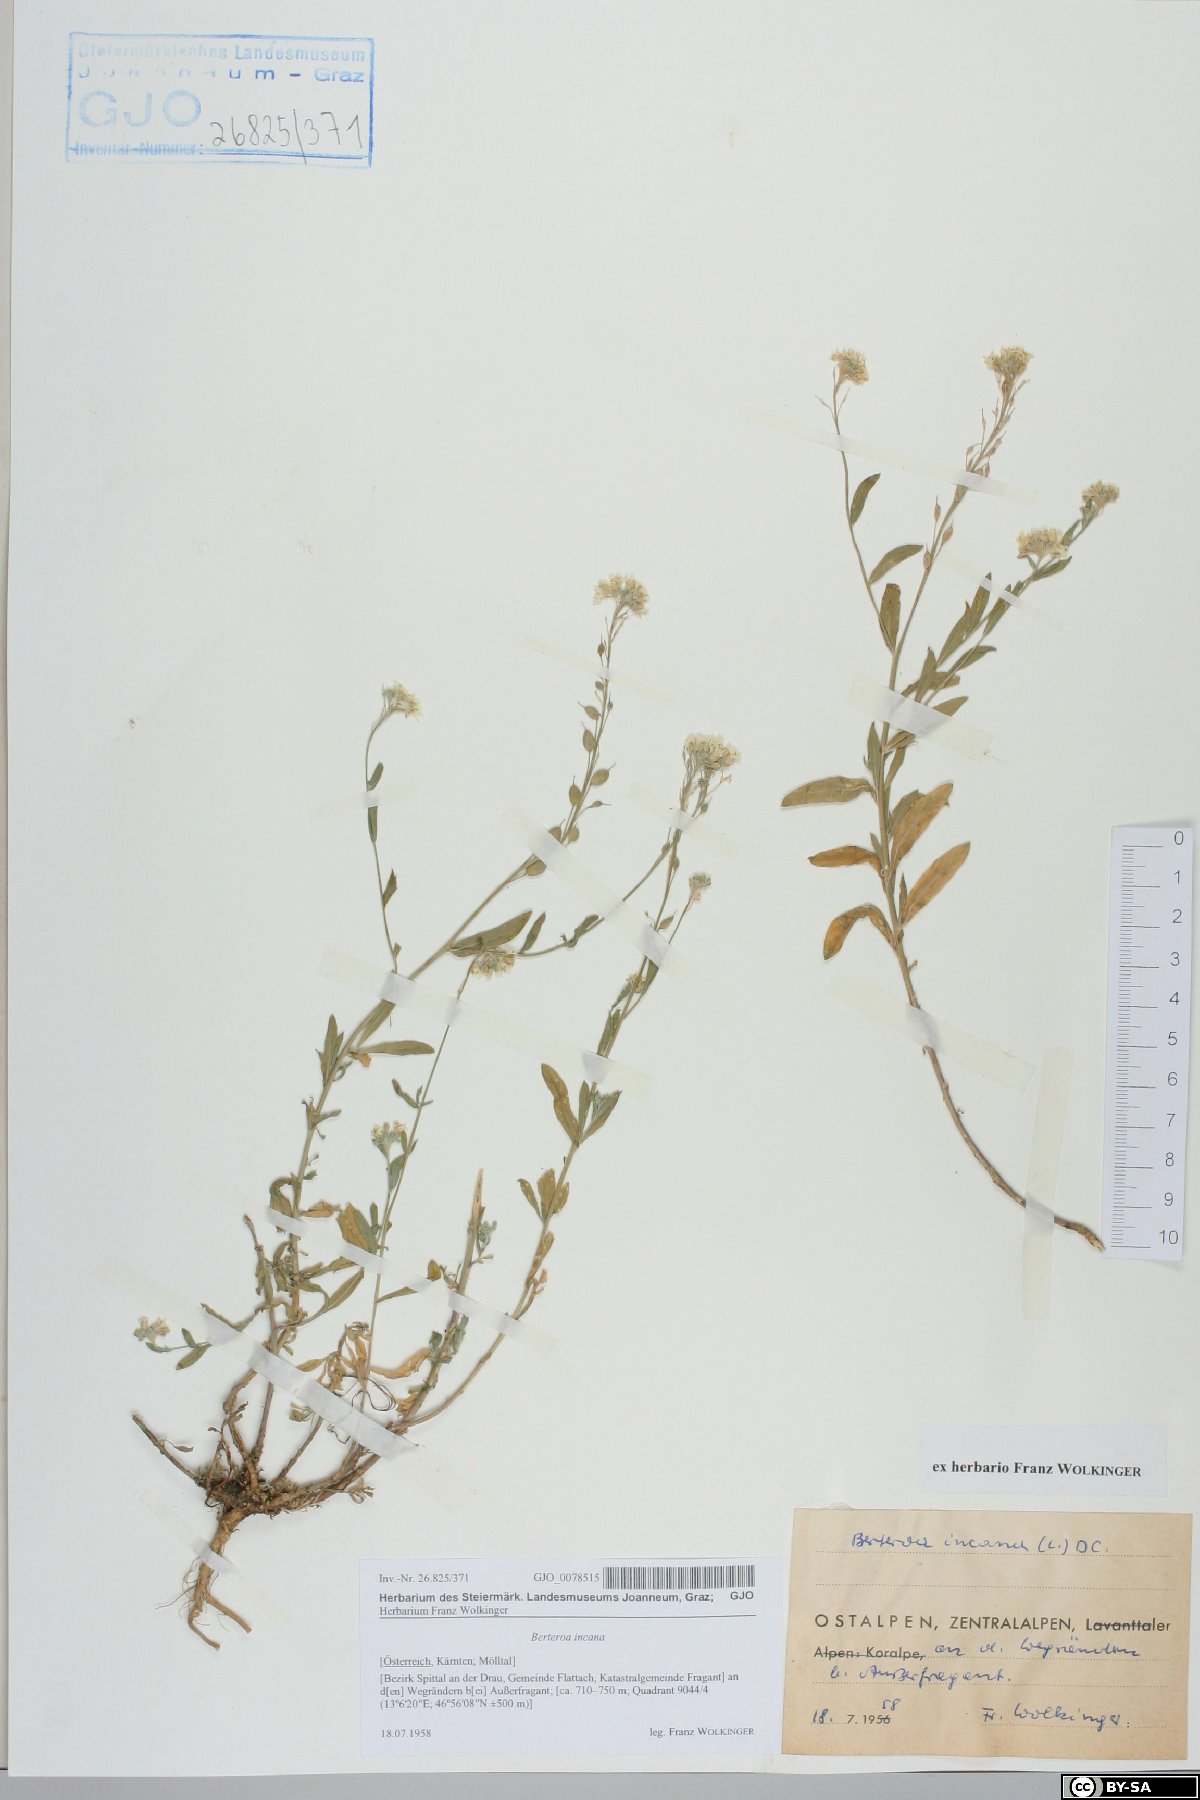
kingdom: Plantae
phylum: Tracheophyta
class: Magnoliopsida
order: Brassicales
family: Brassicaceae
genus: Berteroa
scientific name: Berteroa incana
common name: Hoary alison
